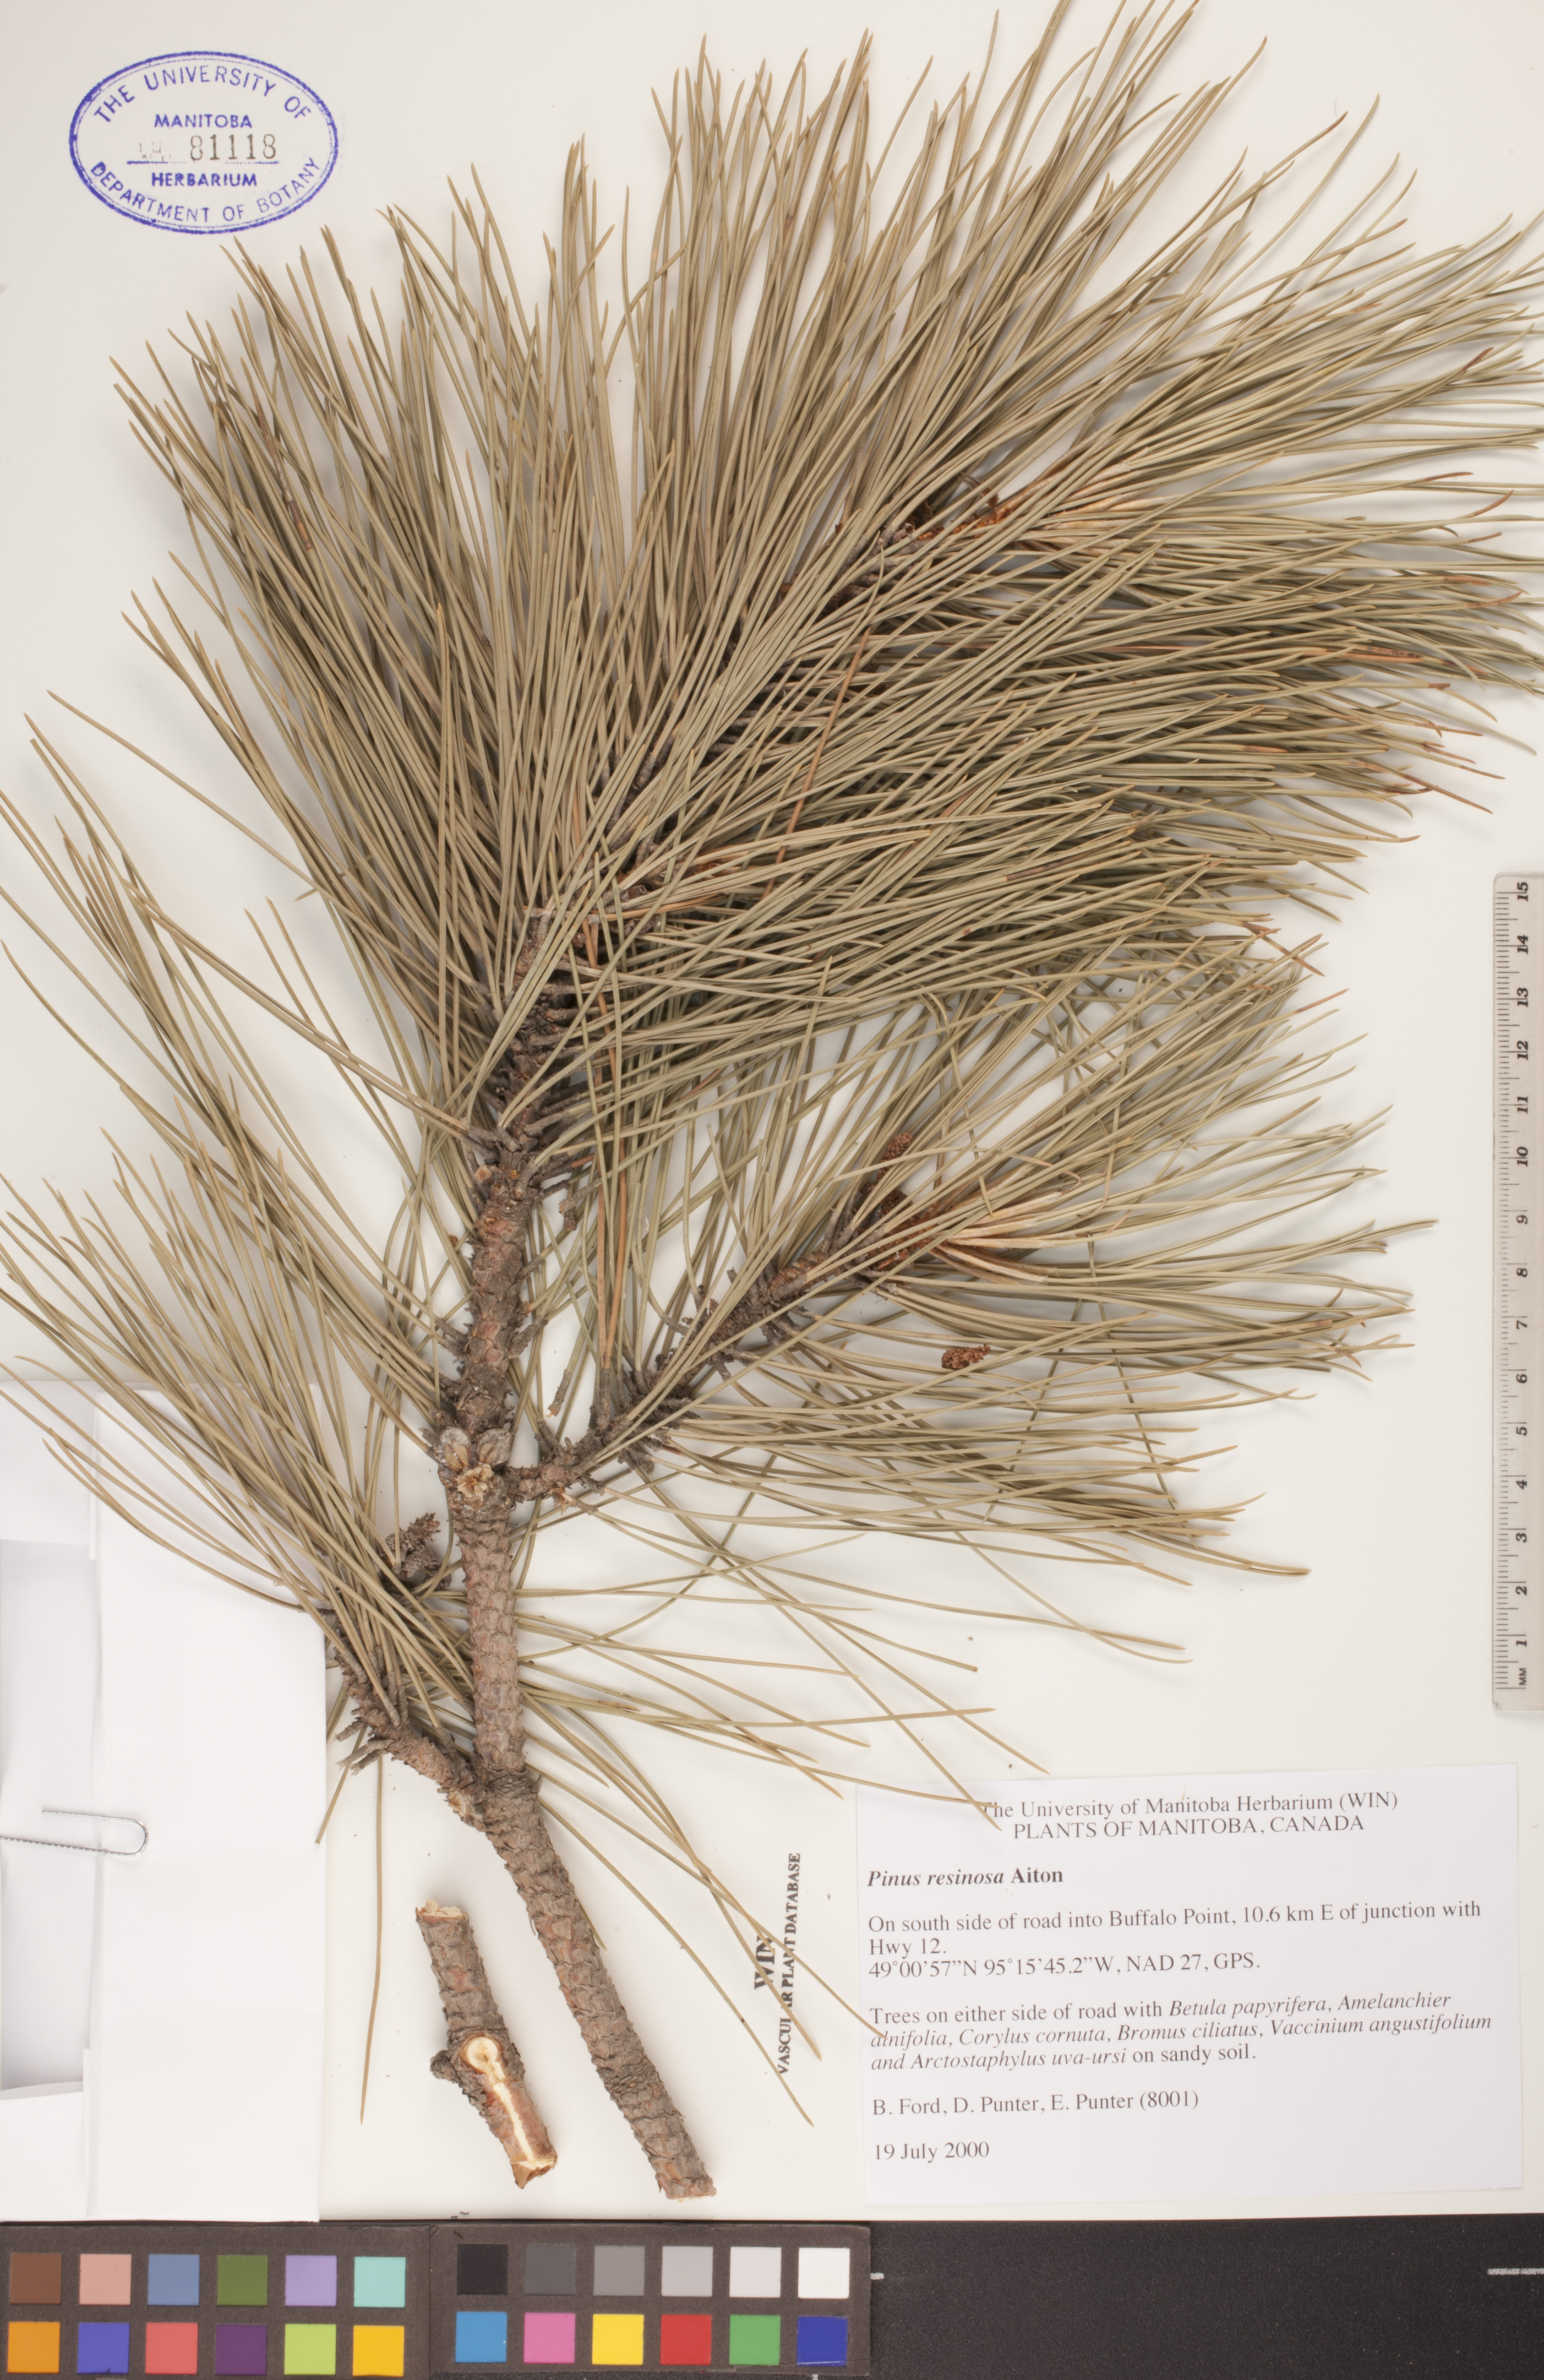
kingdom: Plantae
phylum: Tracheophyta
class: Pinopsida
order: Pinales
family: Pinaceae
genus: Pinus
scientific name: Pinus resinosa
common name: Norway pine
